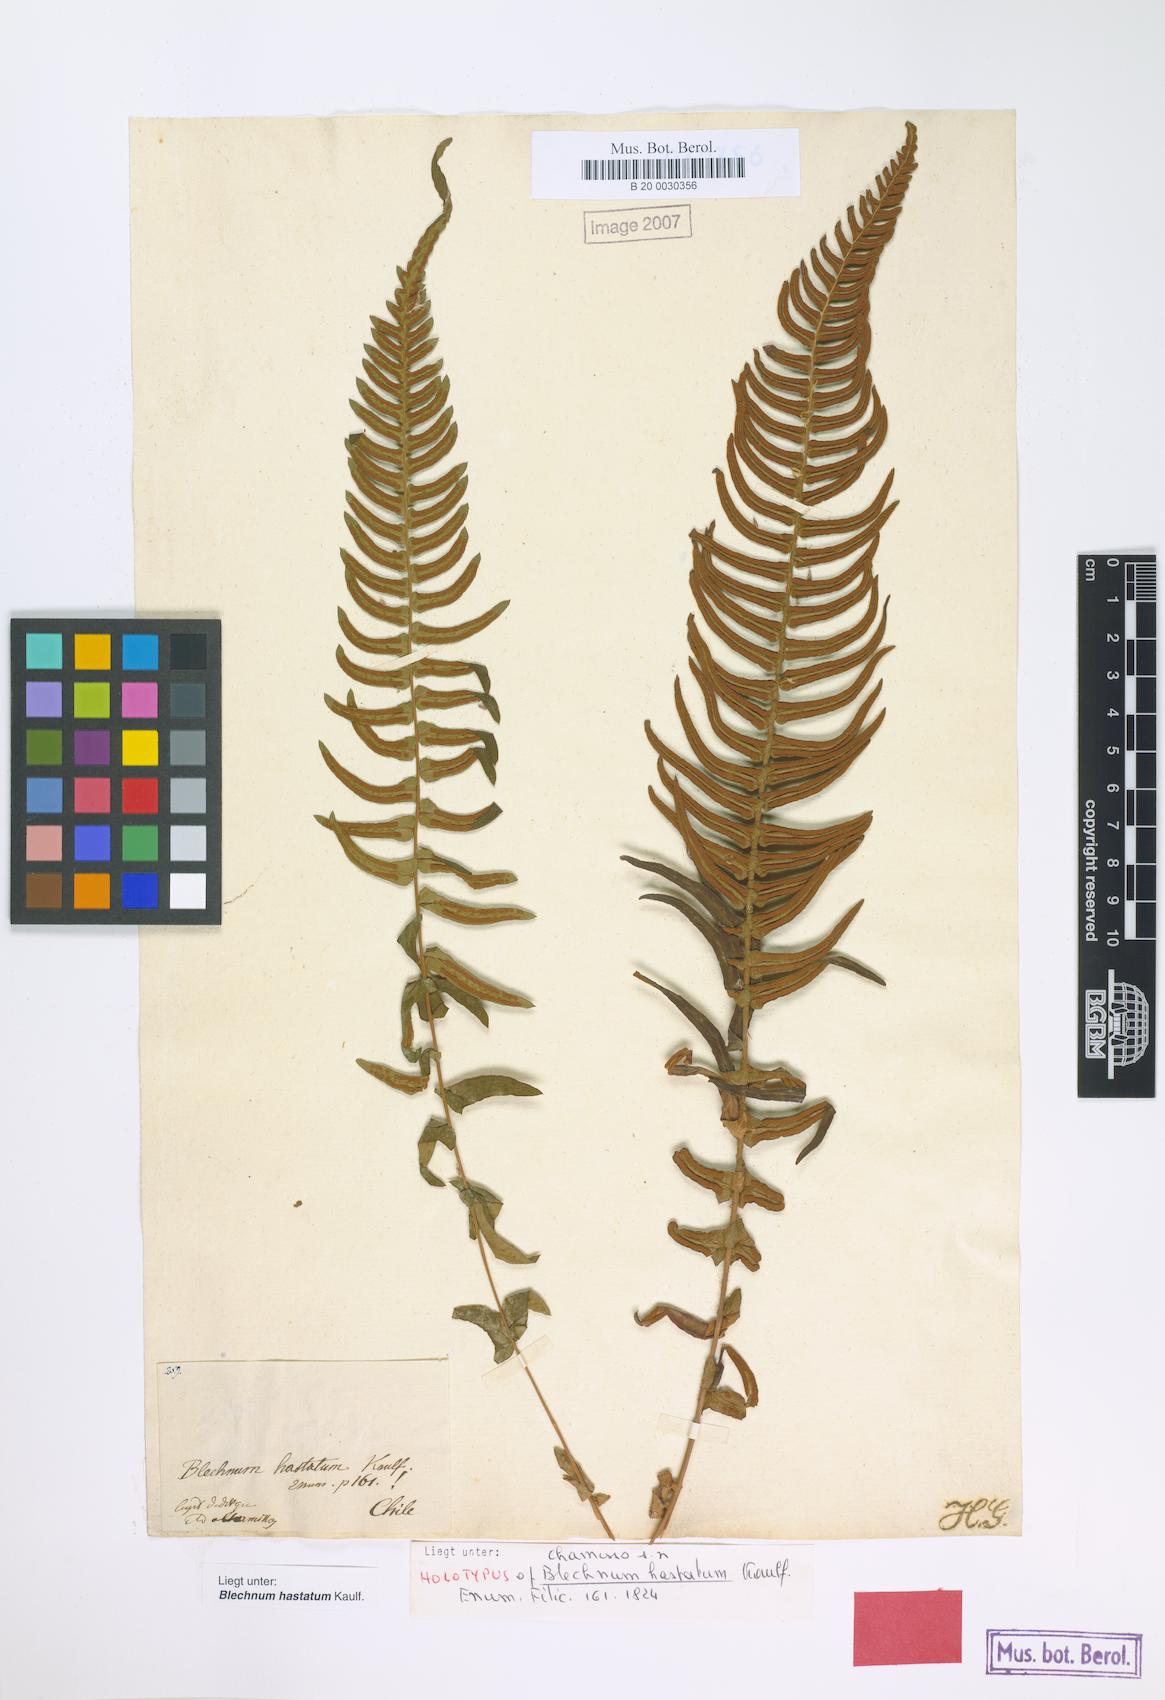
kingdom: Plantae
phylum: Tracheophyta
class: Polypodiopsida
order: Polypodiales
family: Blechnaceae
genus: Blechnum
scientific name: Blechnum hastatum
